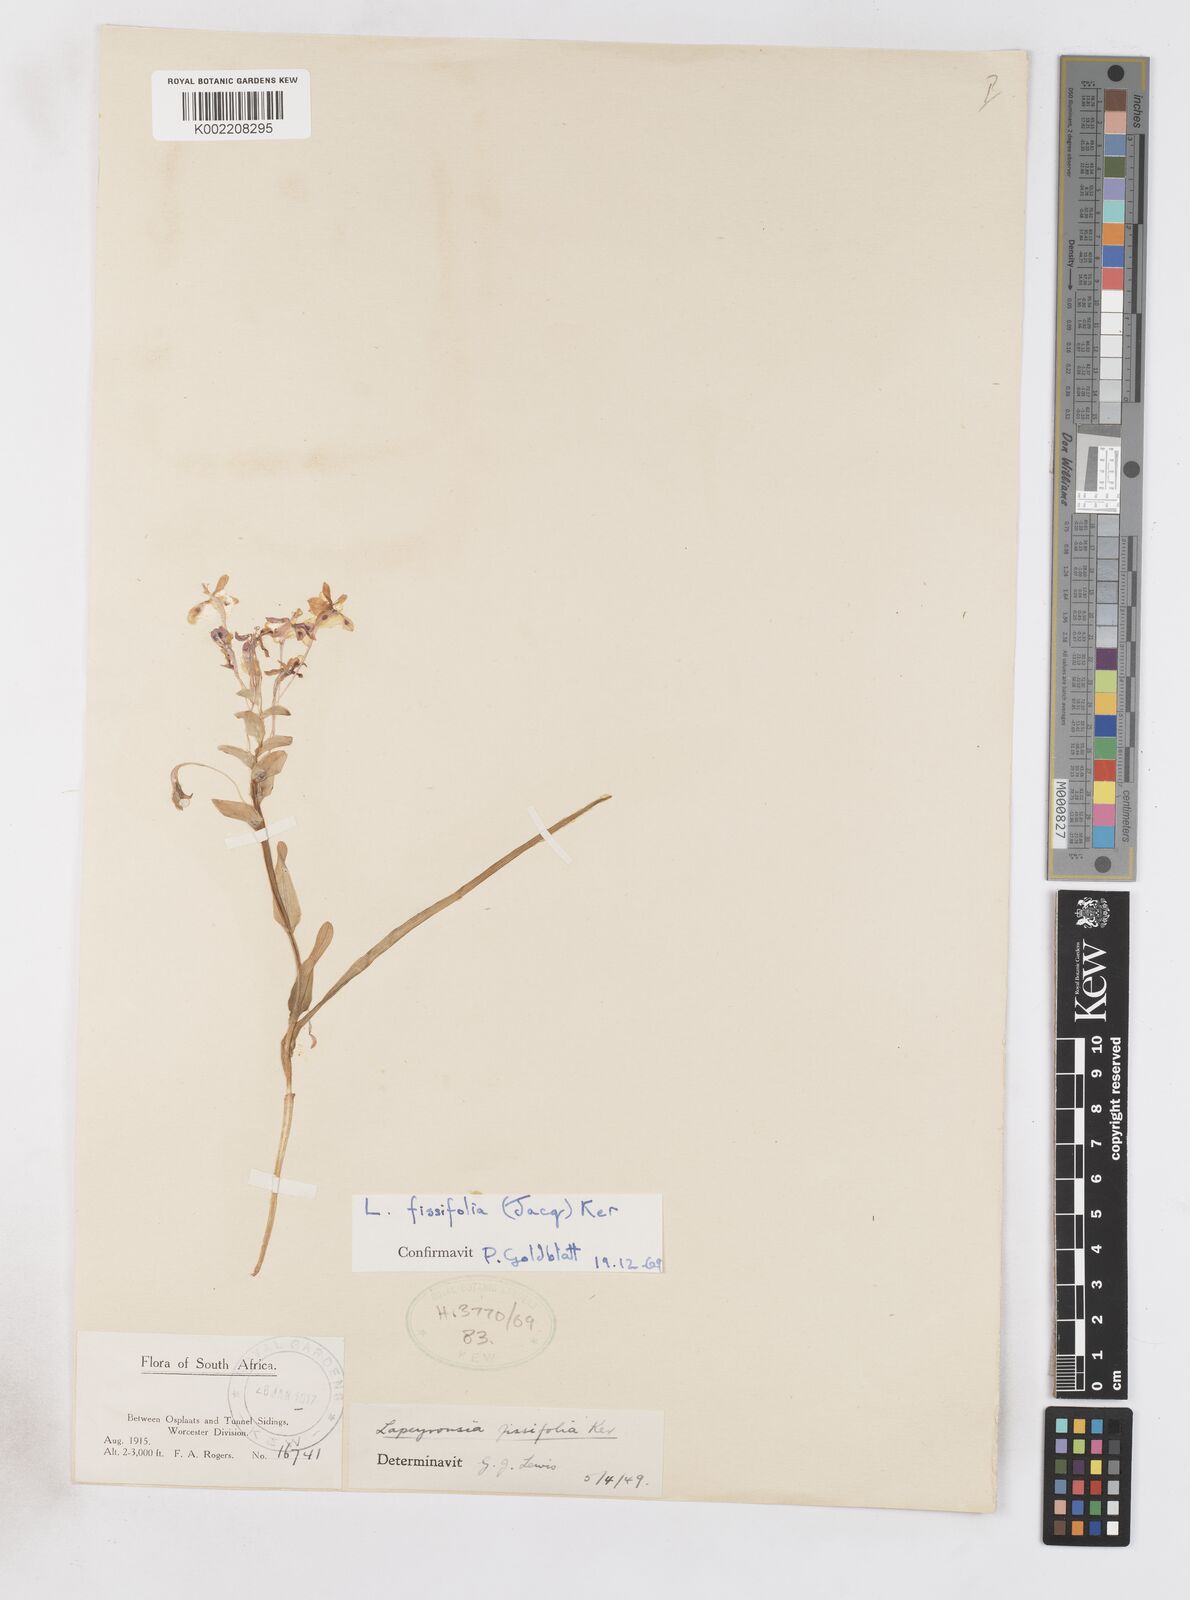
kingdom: Plantae
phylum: Tracheophyta
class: Liliopsida
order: Asparagales
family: Iridaceae
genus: Lapeirousia
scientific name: Lapeirousia pyramidalis
